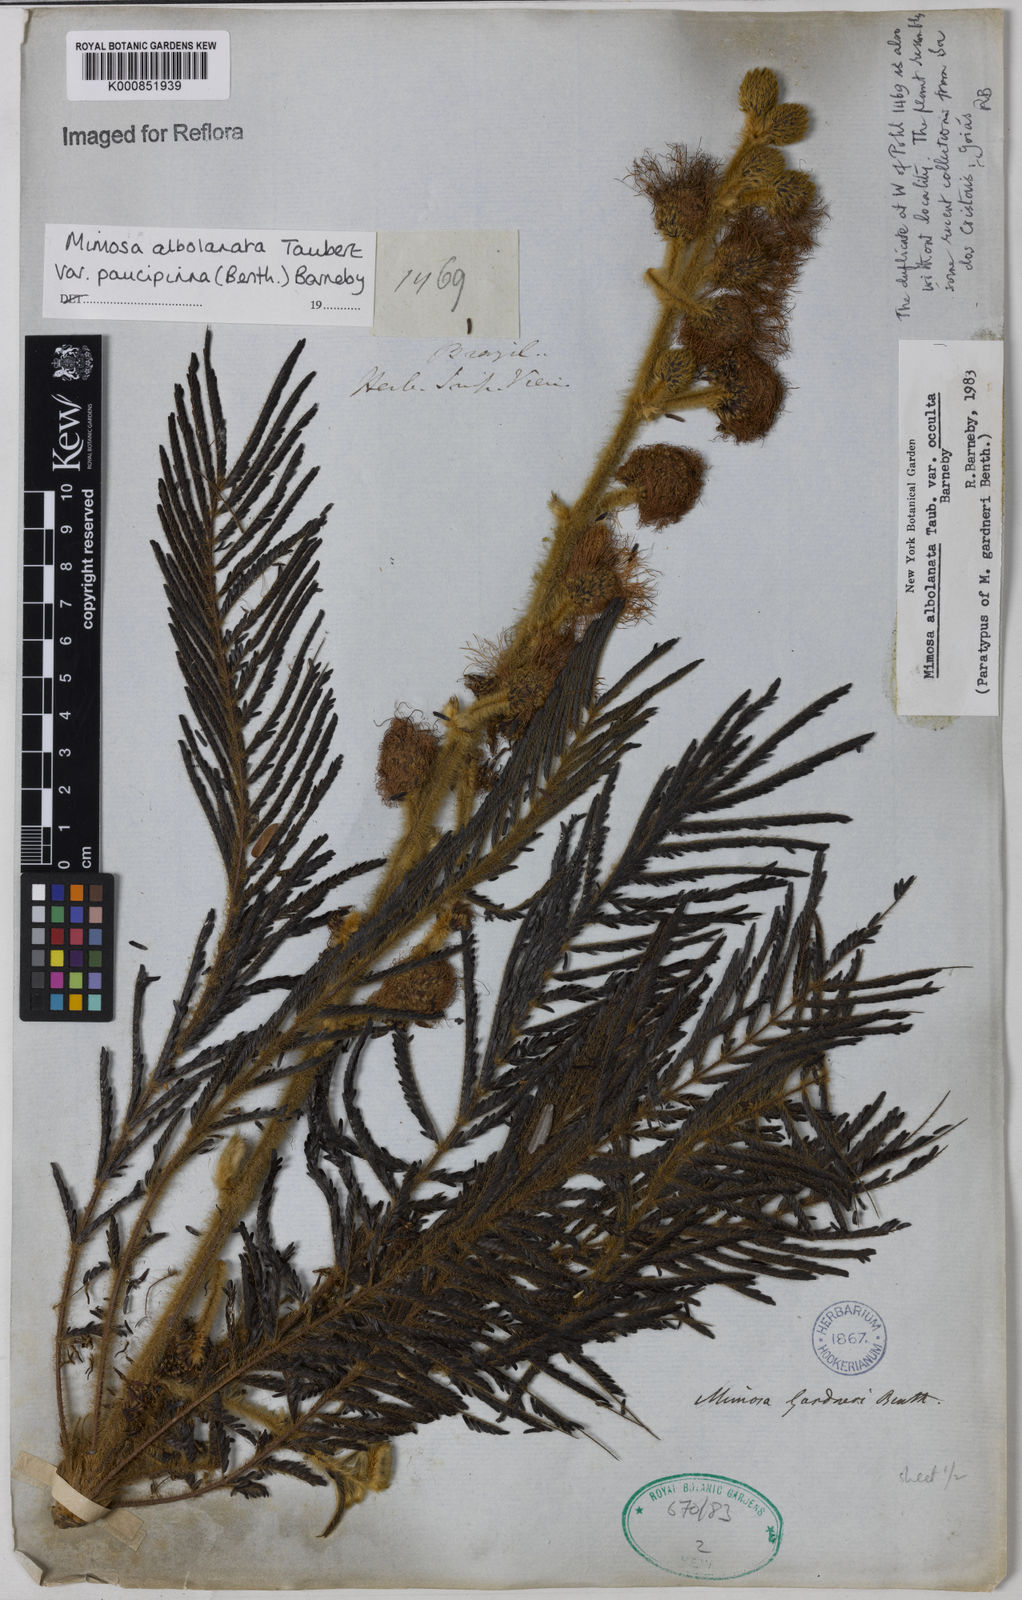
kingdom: Plantae
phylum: Tracheophyta
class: Magnoliopsida
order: Fabales
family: Fabaceae
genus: Mimosa
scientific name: Mimosa albolanata
